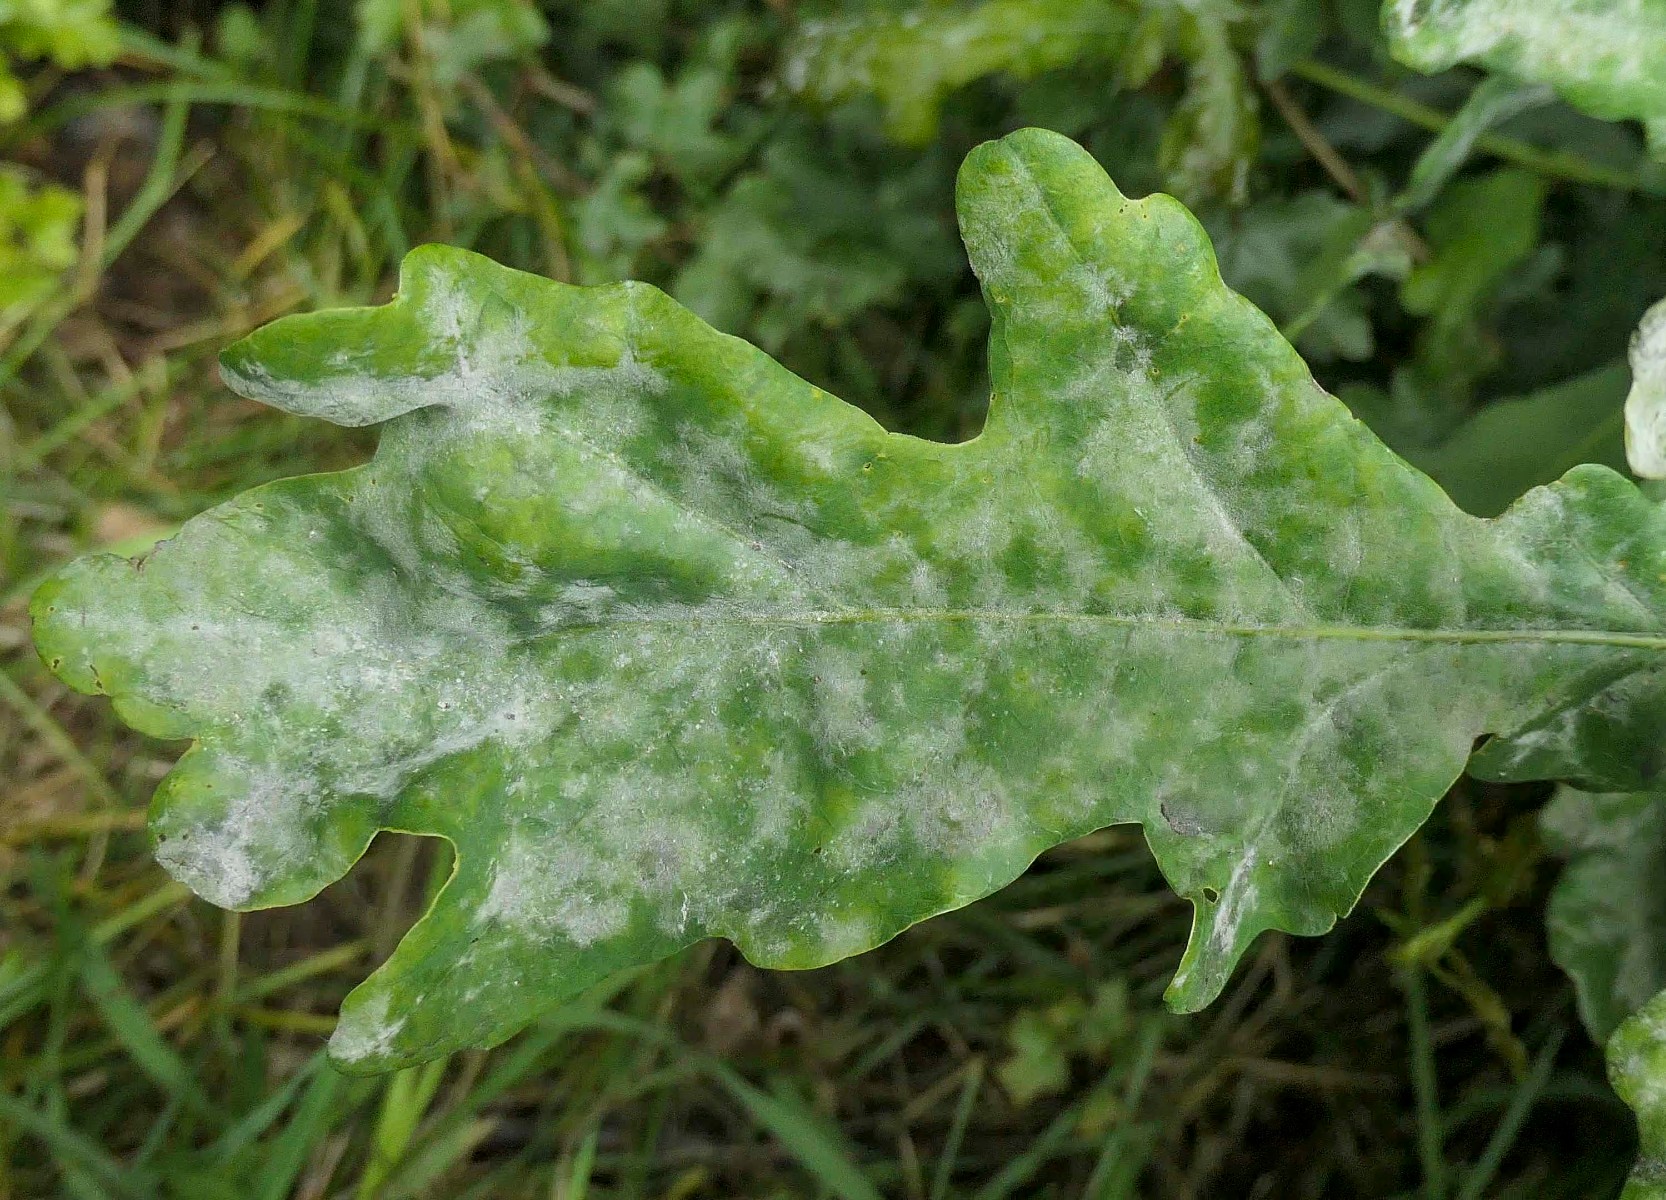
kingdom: Fungi
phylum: Ascomycota
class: Leotiomycetes
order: Helotiales
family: Erysiphaceae
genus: Erysiphe
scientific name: Erysiphe alphitoides
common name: ege-meldug
